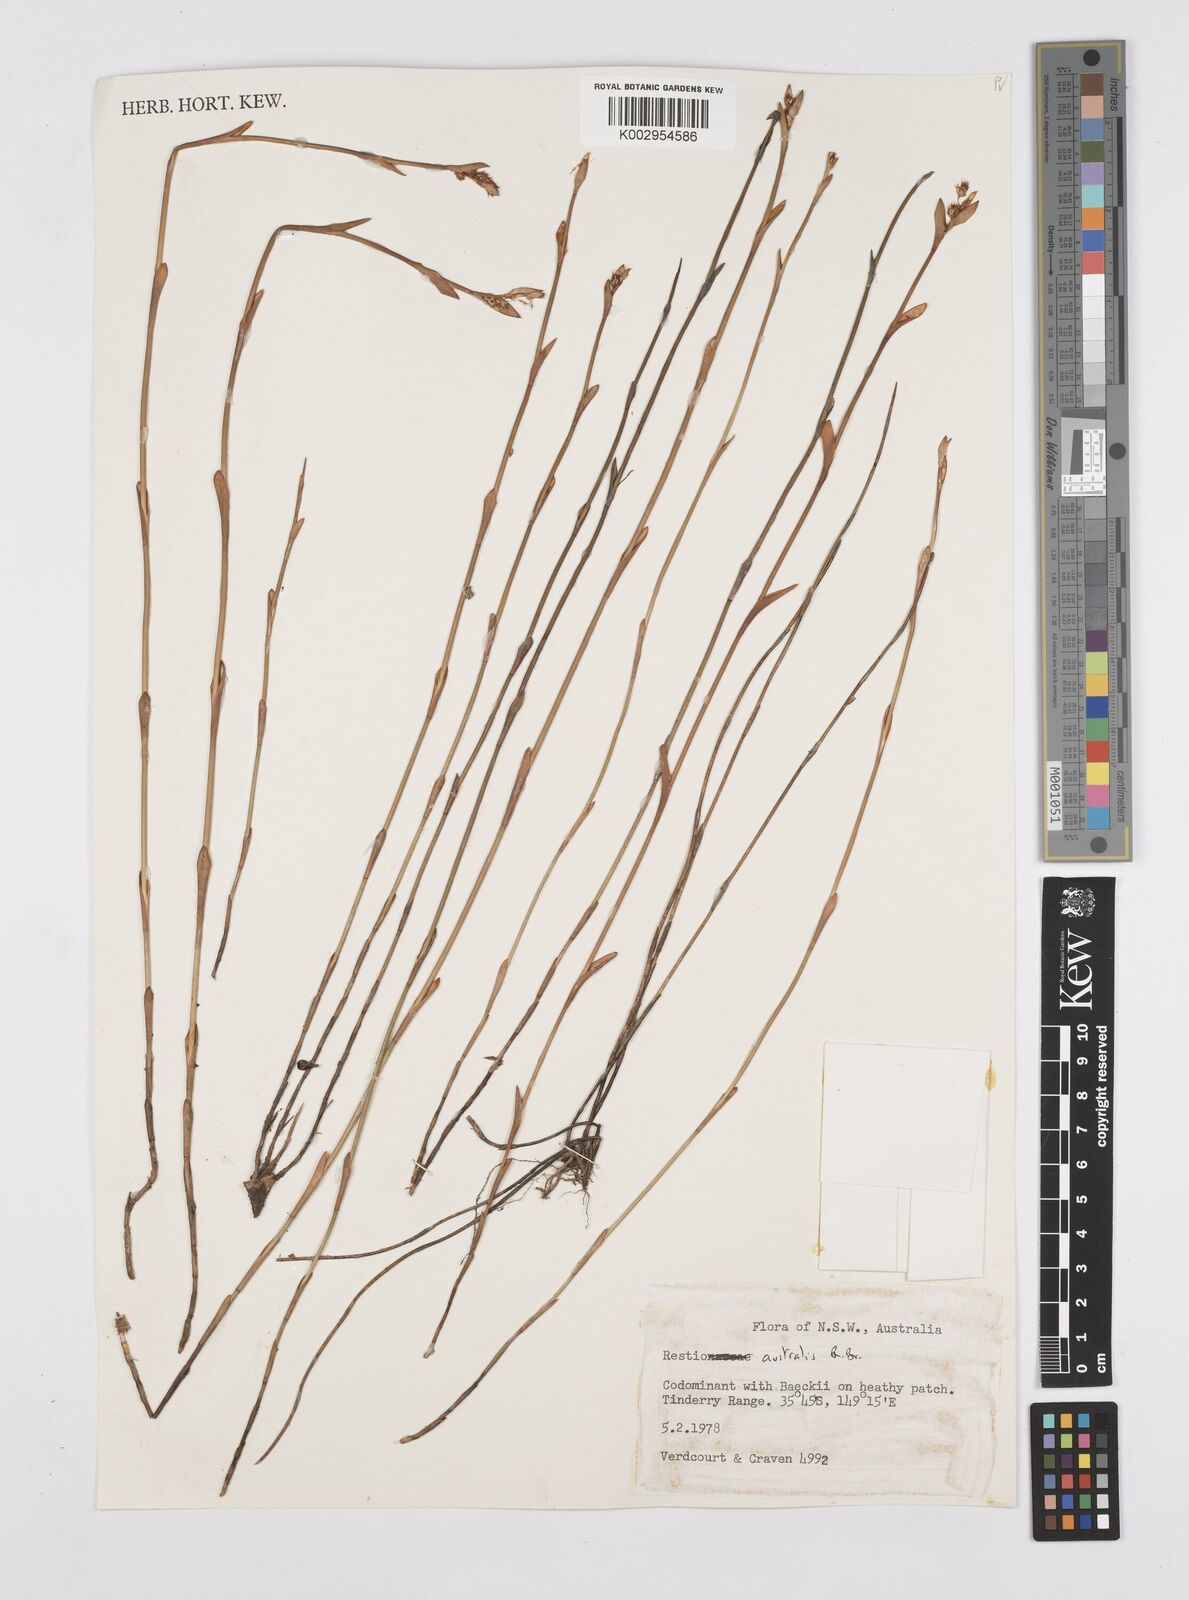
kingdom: Plantae
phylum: Tracheophyta
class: Liliopsida
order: Poales
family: Restionaceae
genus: Baloskion
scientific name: Baloskion australe
